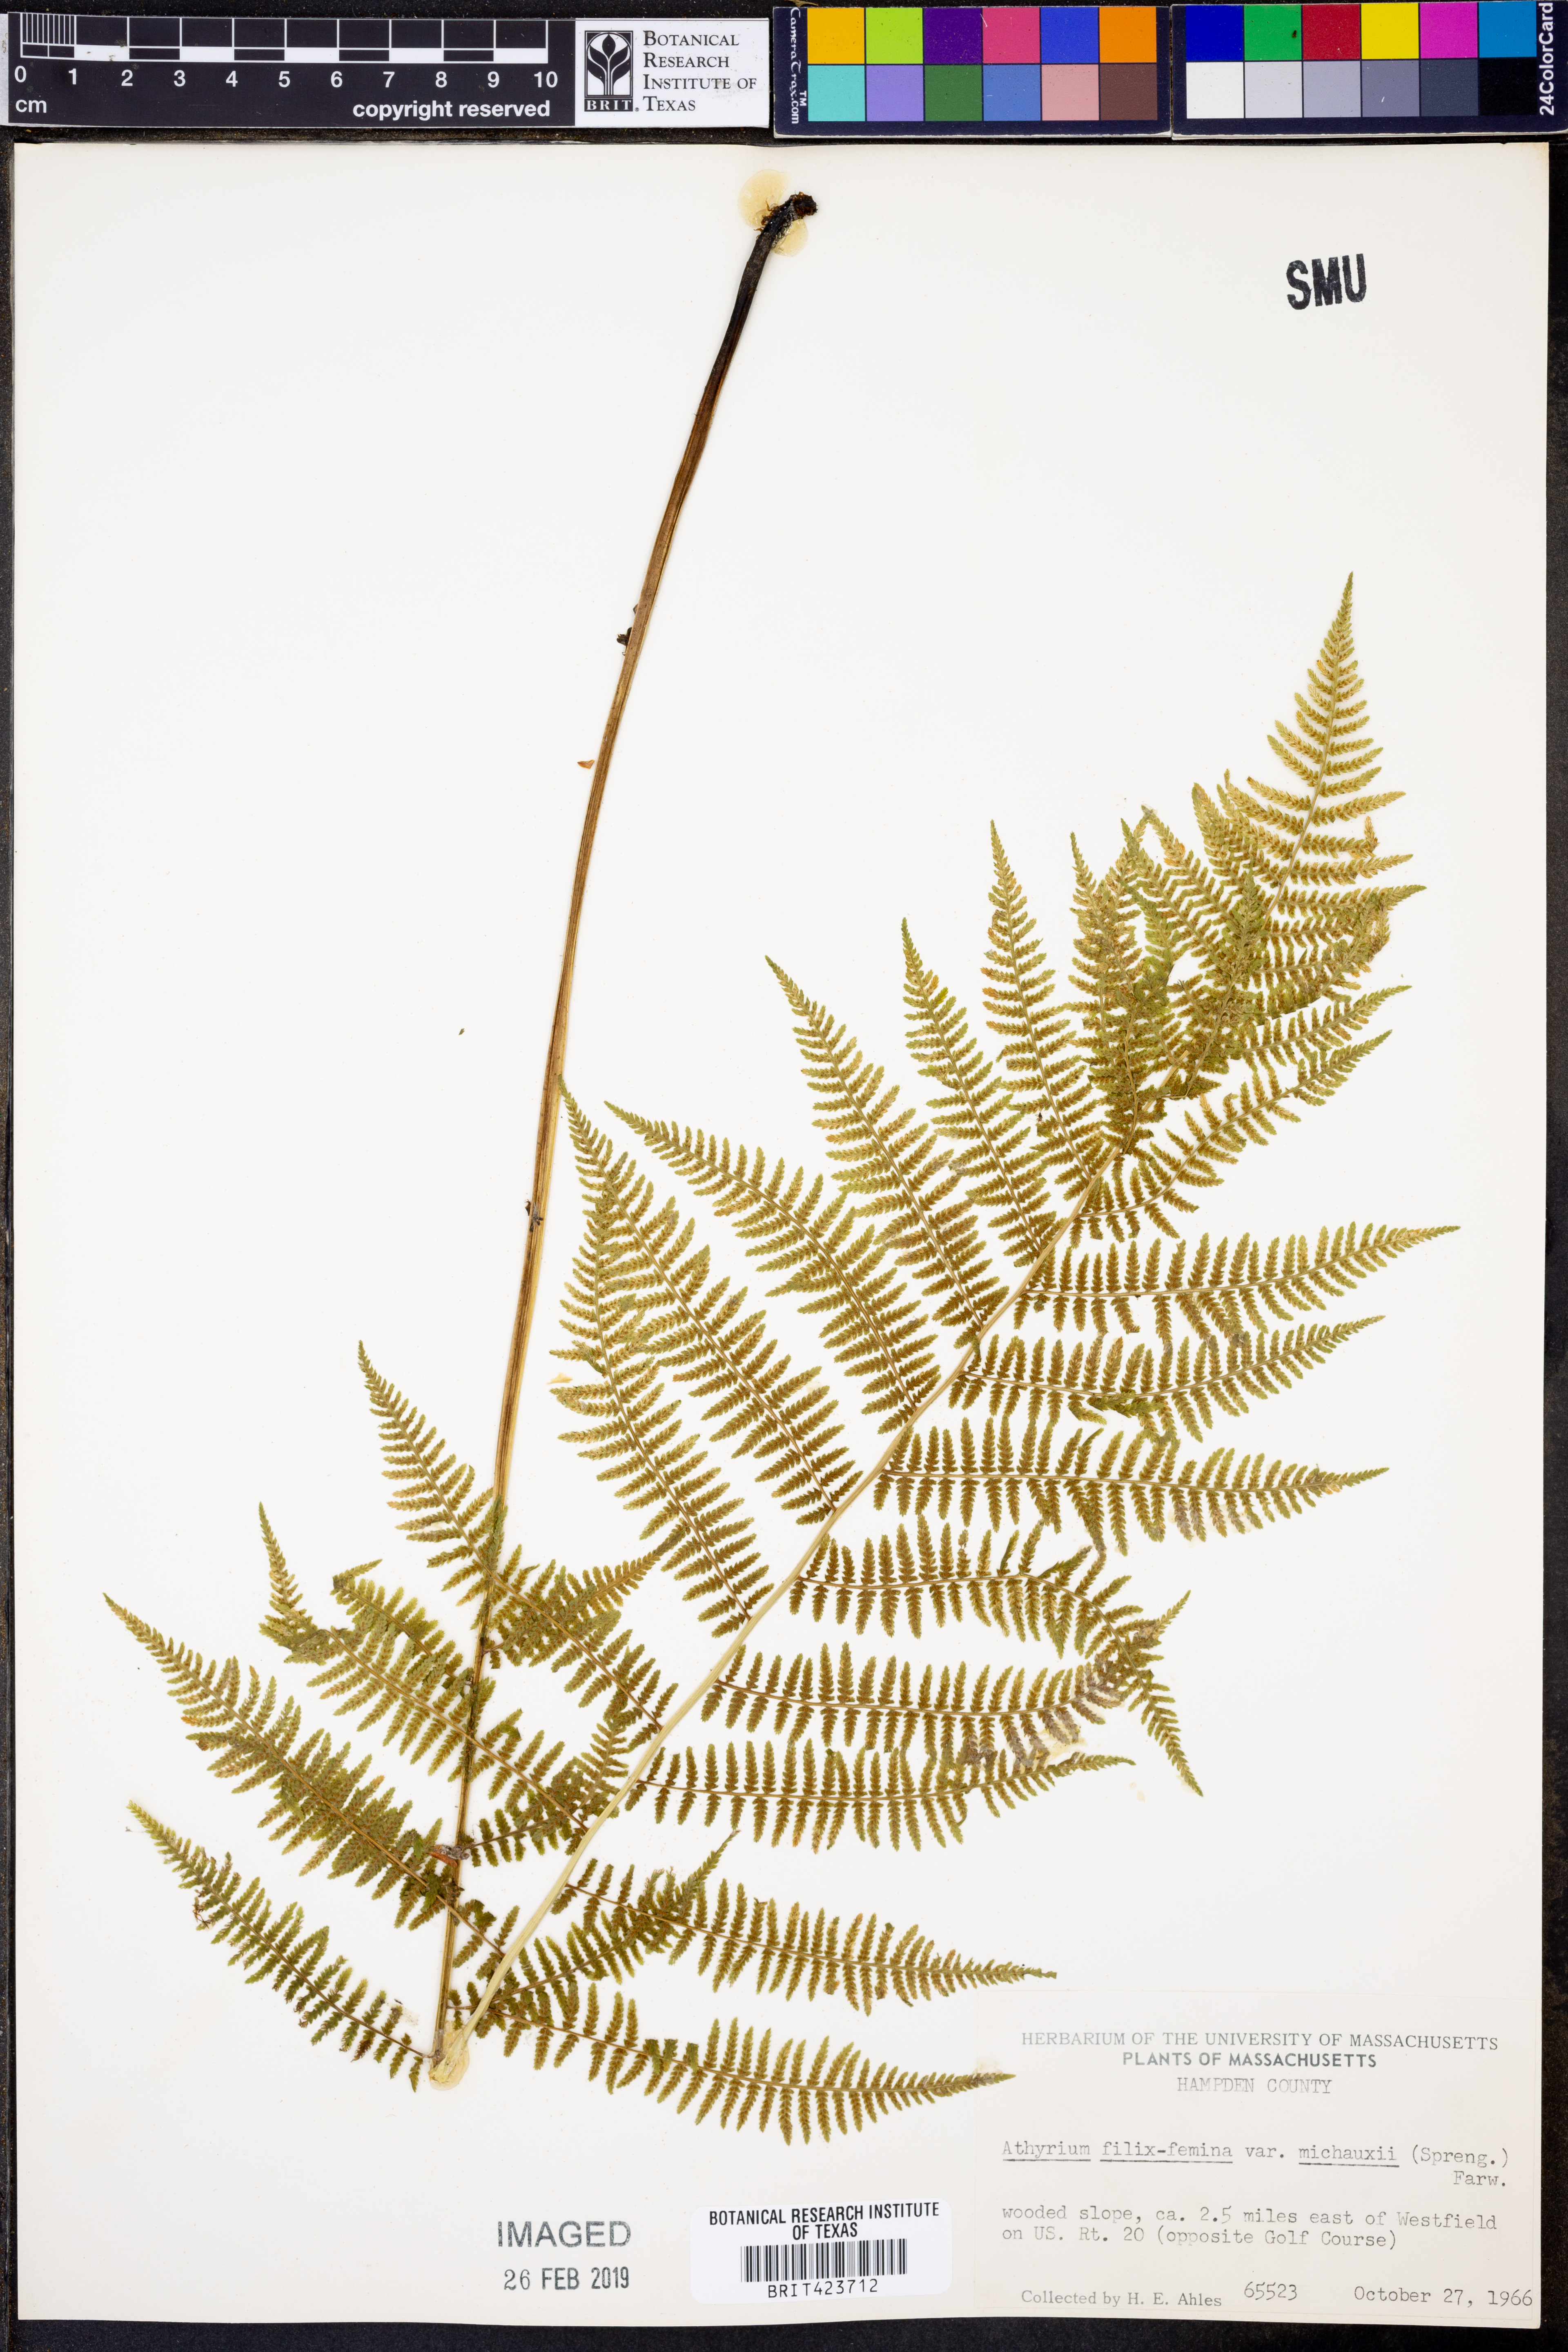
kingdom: Plantae
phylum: Tracheophyta
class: Polypodiopsida
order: Polypodiales
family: Athyriaceae
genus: Athyrium
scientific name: Athyrium angustum
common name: Northern lady fern
